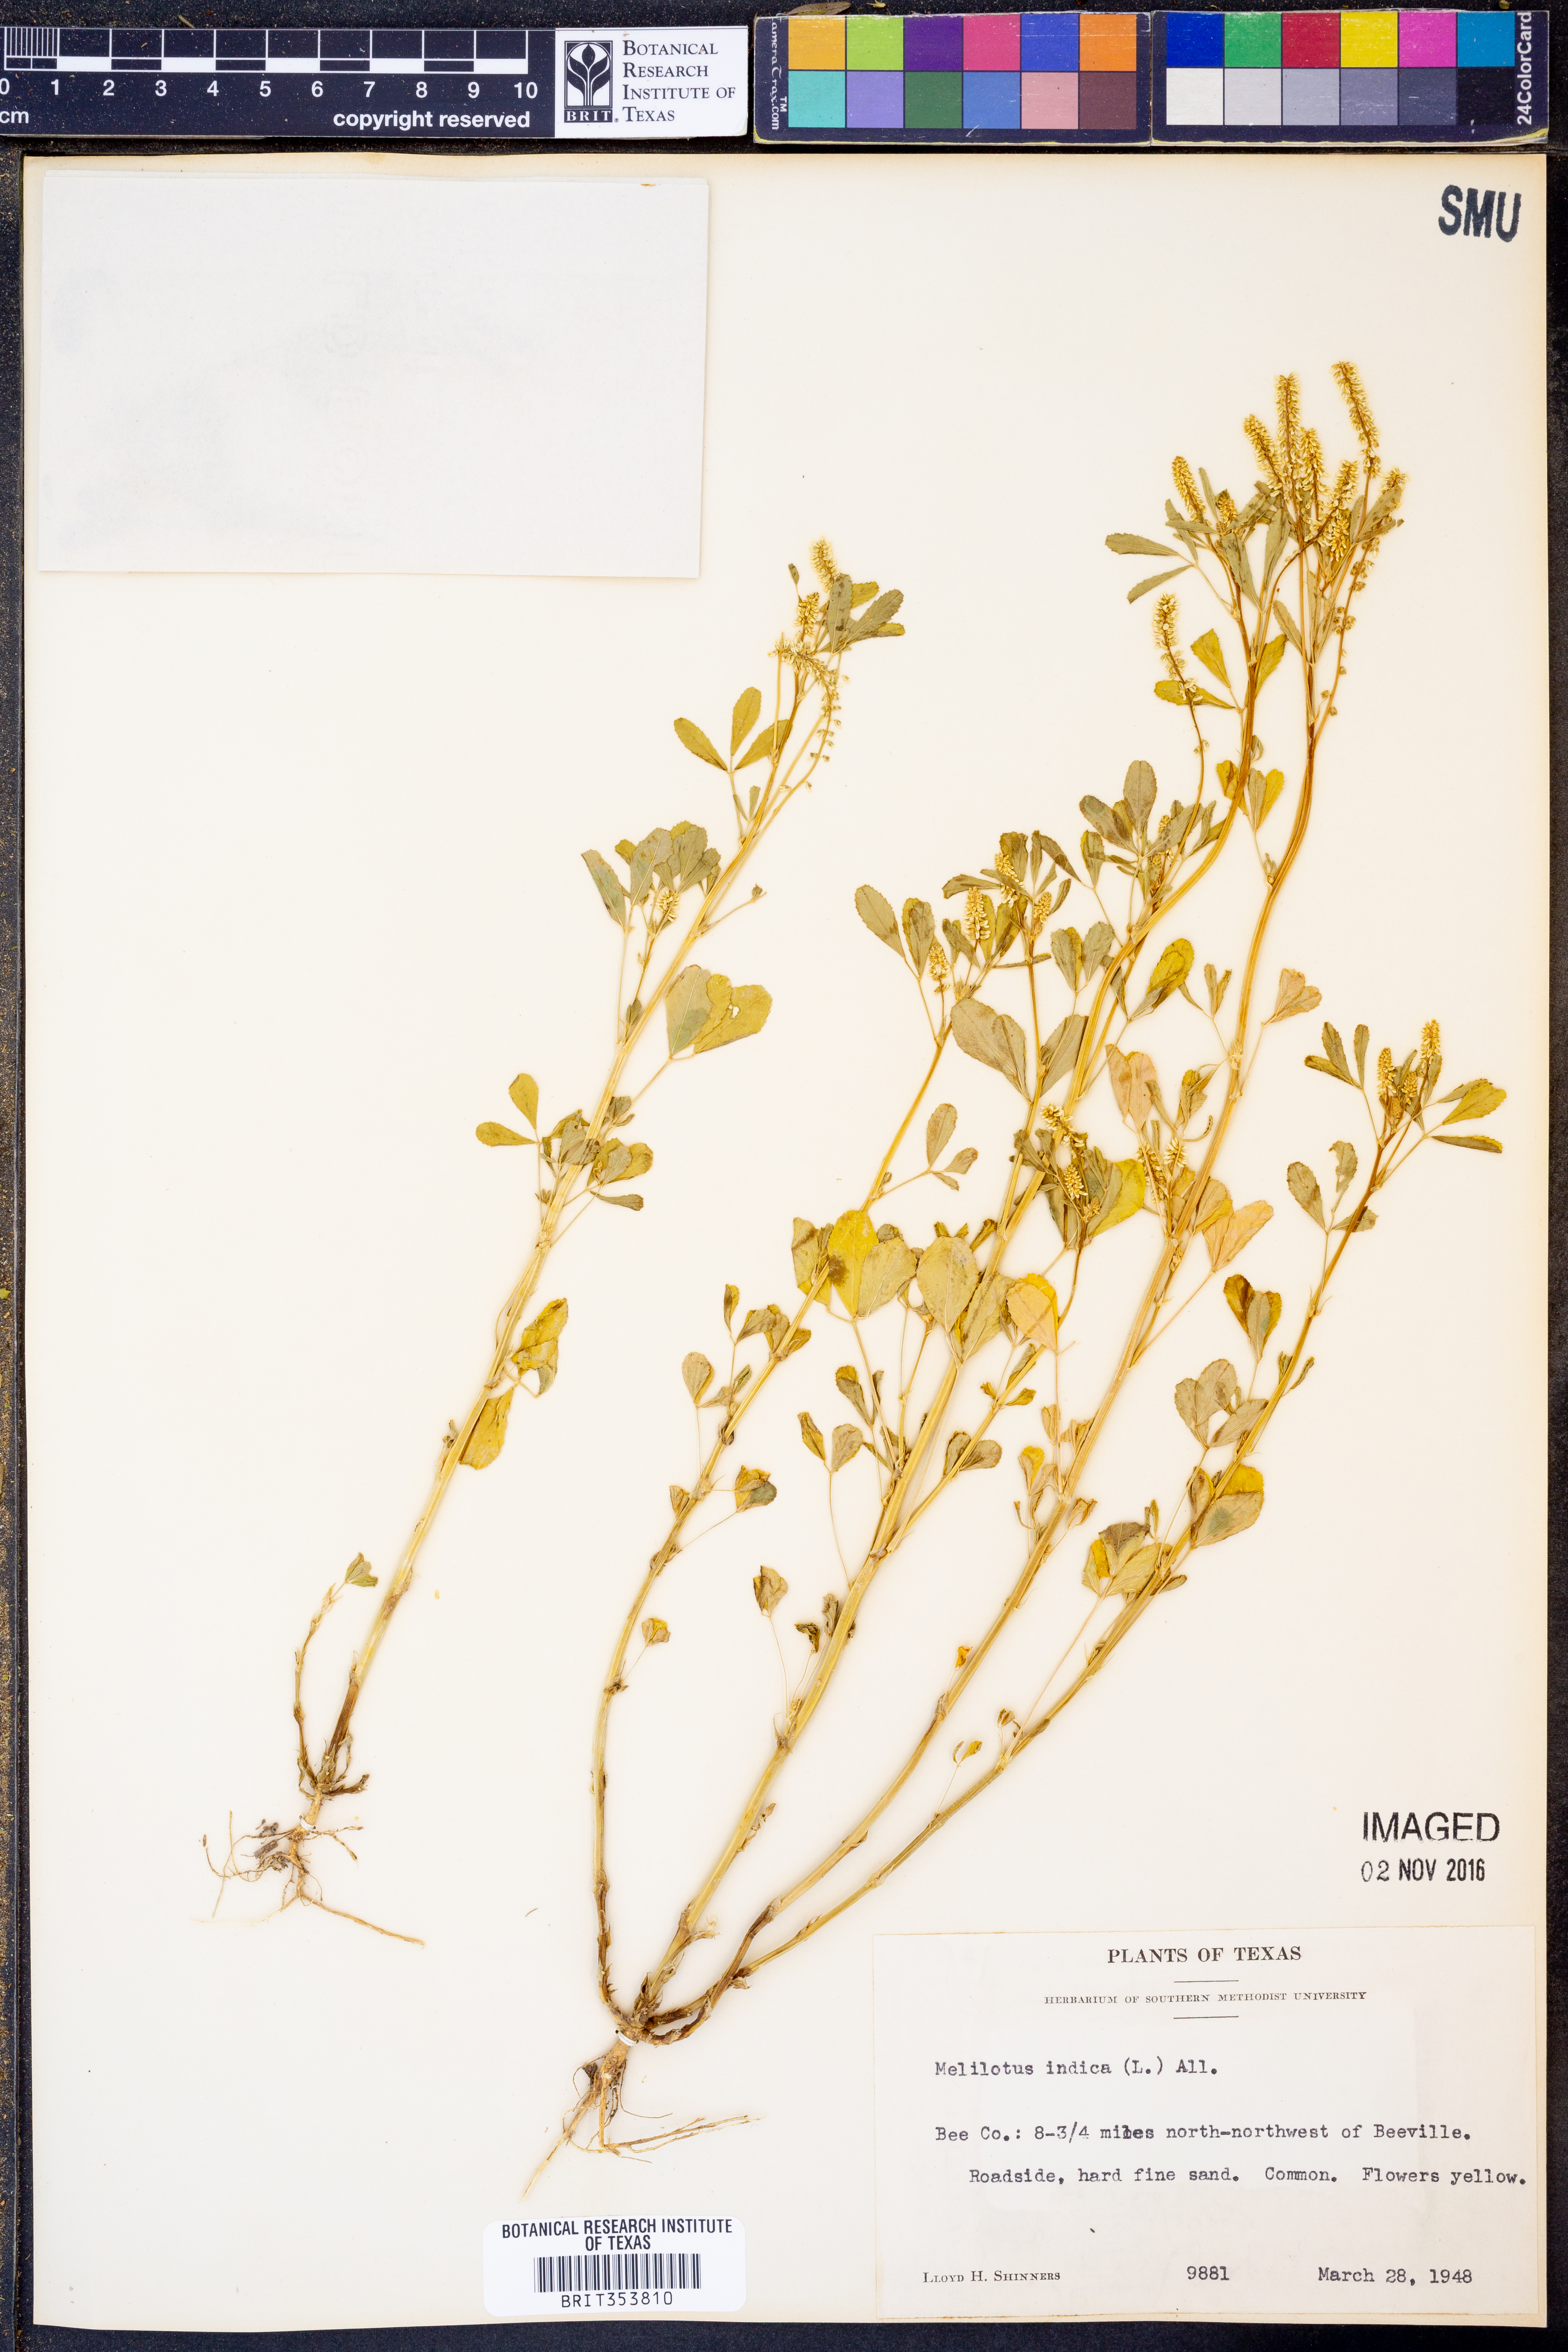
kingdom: Plantae
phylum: Tracheophyta
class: Magnoliopsida
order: Fabales
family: Fabaceae
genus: Melilotus
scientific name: Melilotus indicus
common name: Small melilot
